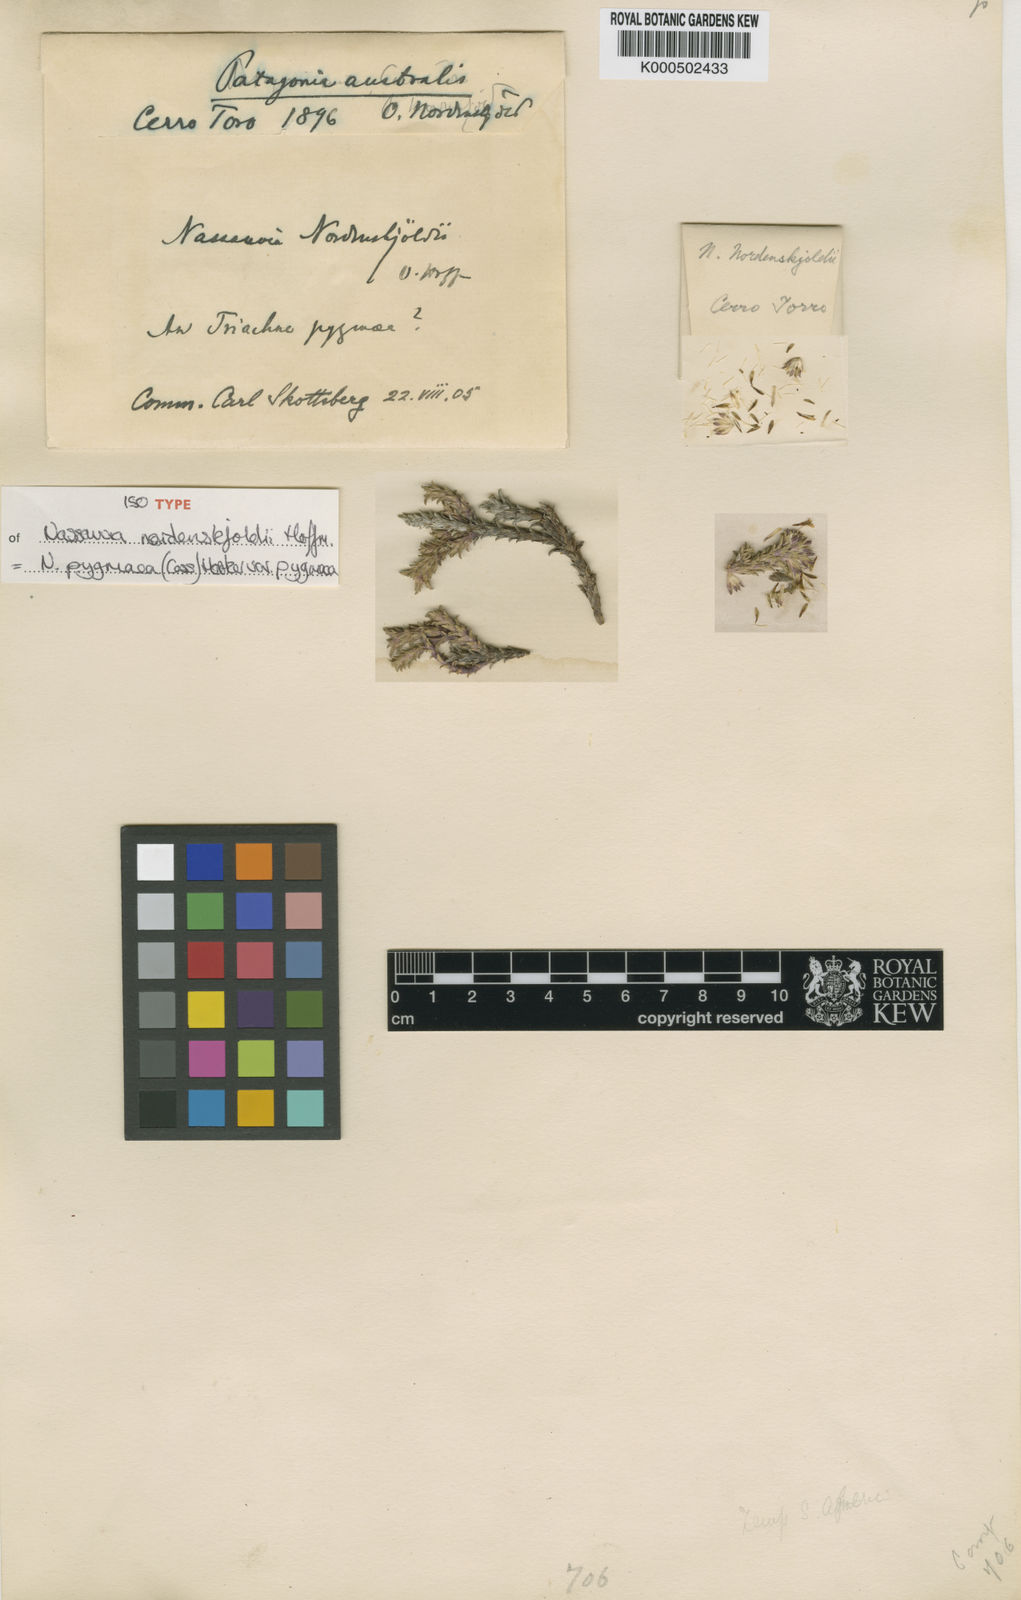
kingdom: Plantae
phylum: Tracheophyta
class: Magnoliopsida
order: Asterales
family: Asteraceae
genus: Nassauvia
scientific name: Nassauvia pygmaea
